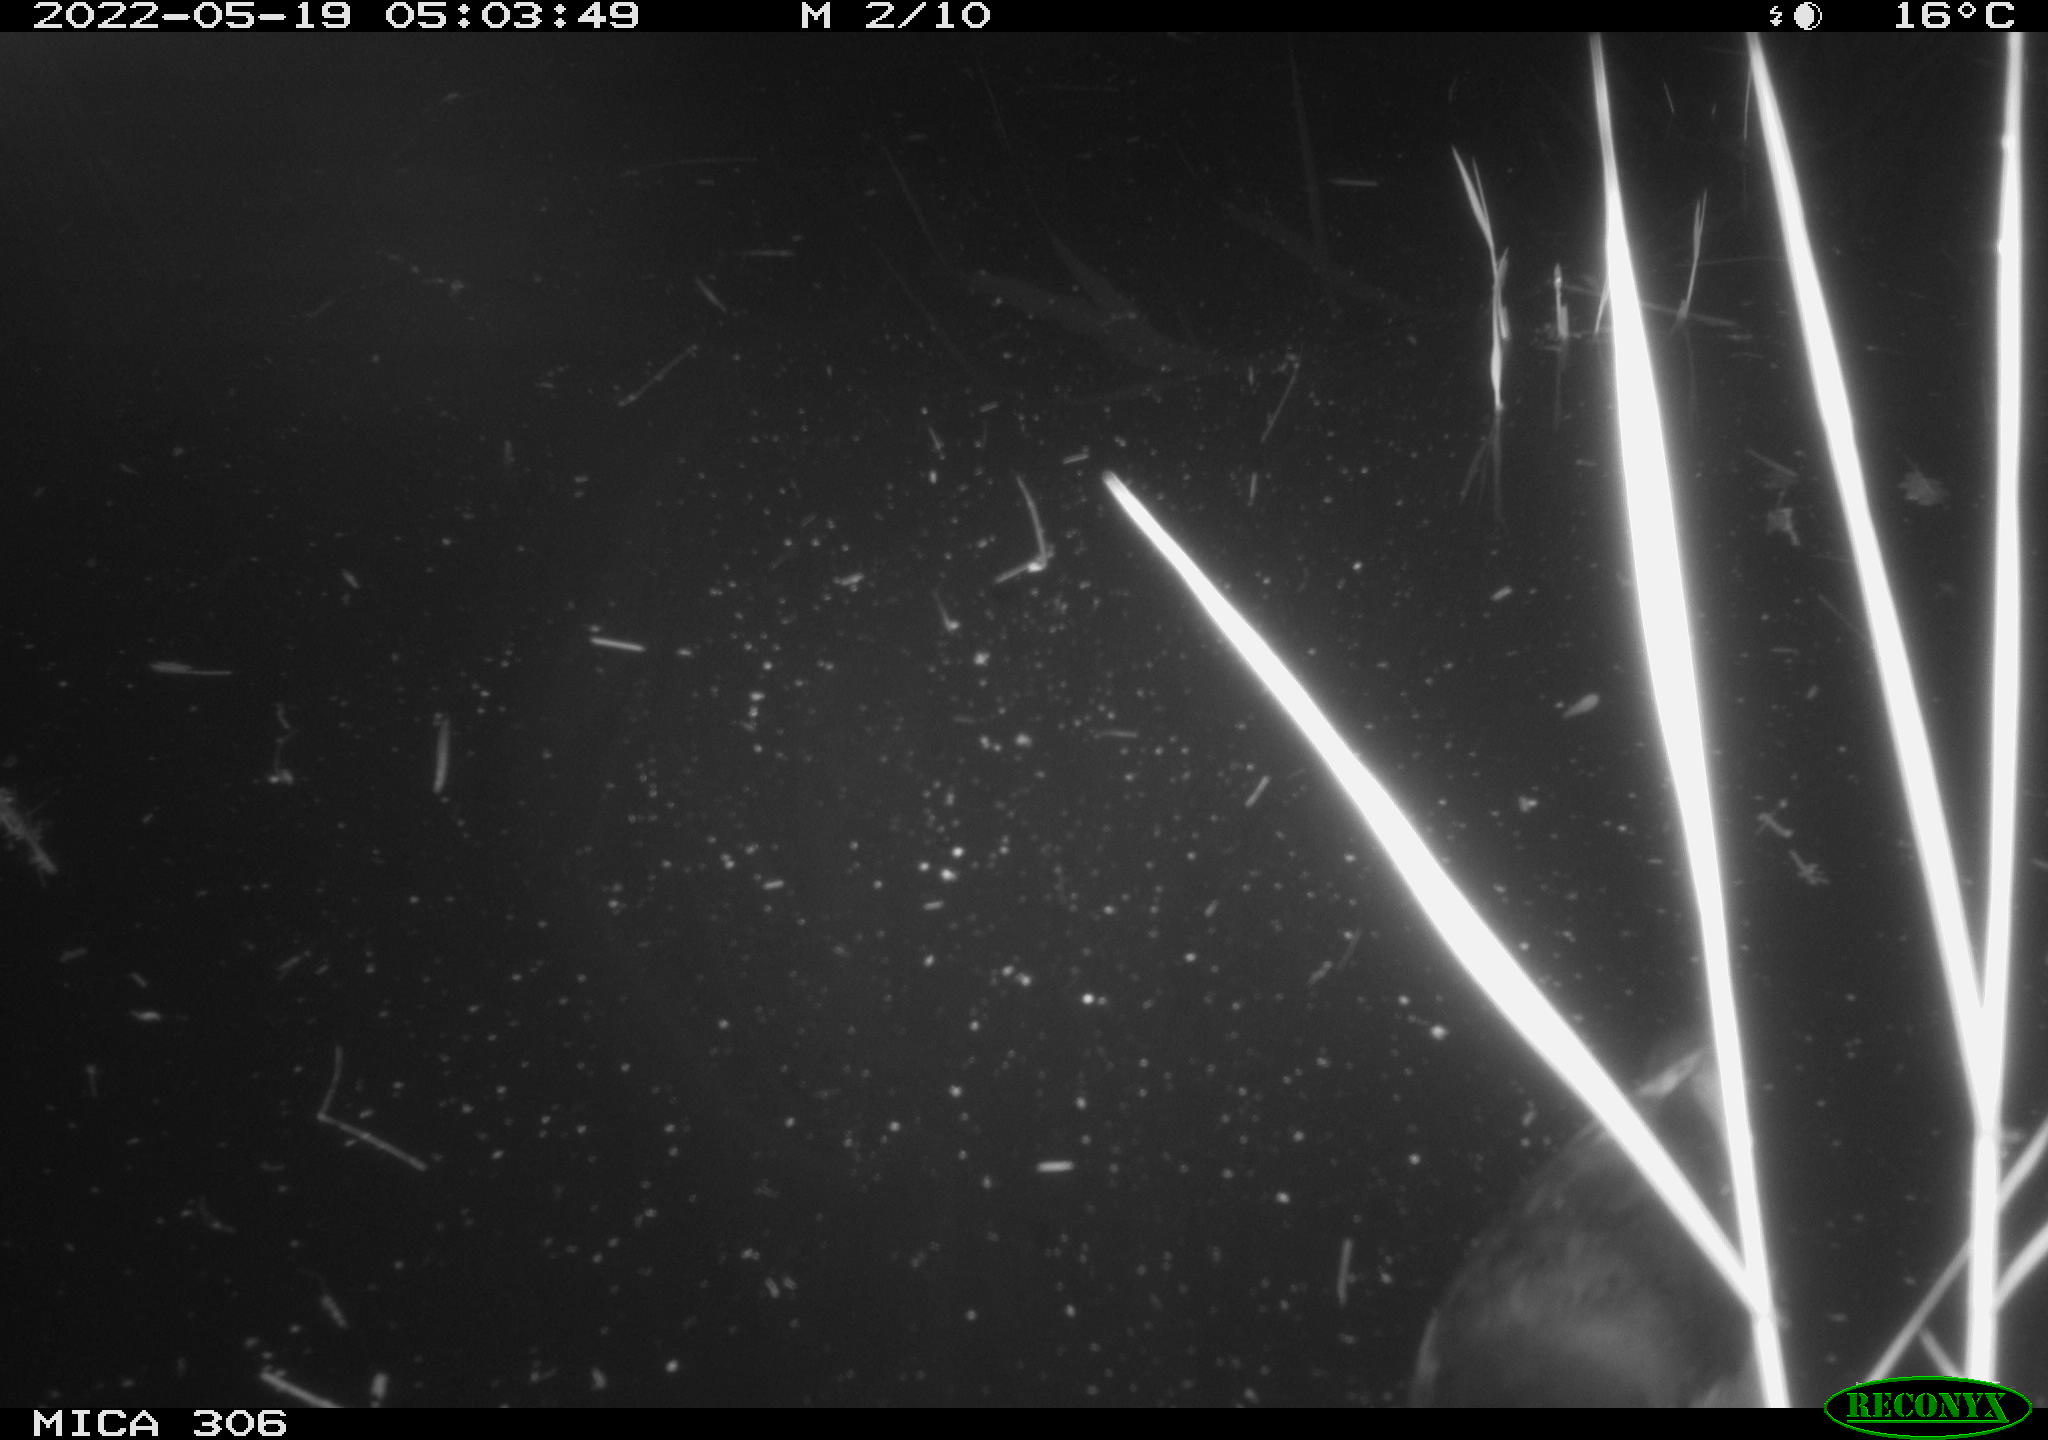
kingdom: Animalia
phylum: Chordata
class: Aves
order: Gruiformes
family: Rallidae
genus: Gallinula
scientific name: Gallinula chloropus
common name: Common moorhen
